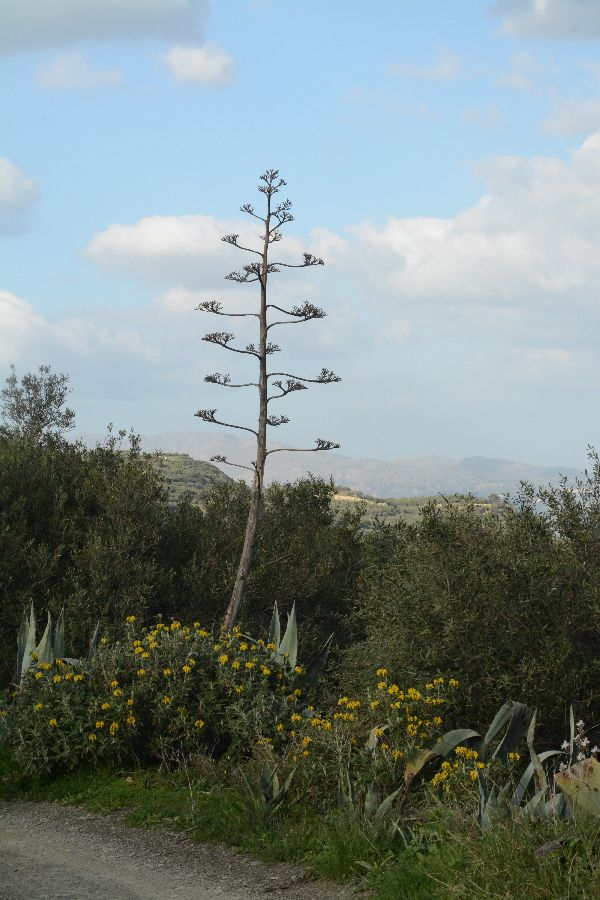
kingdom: Plantae
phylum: Tracheophyta
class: Liliopsida
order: Asparagales
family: Asparagaceae
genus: Agave
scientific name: Agave americana
